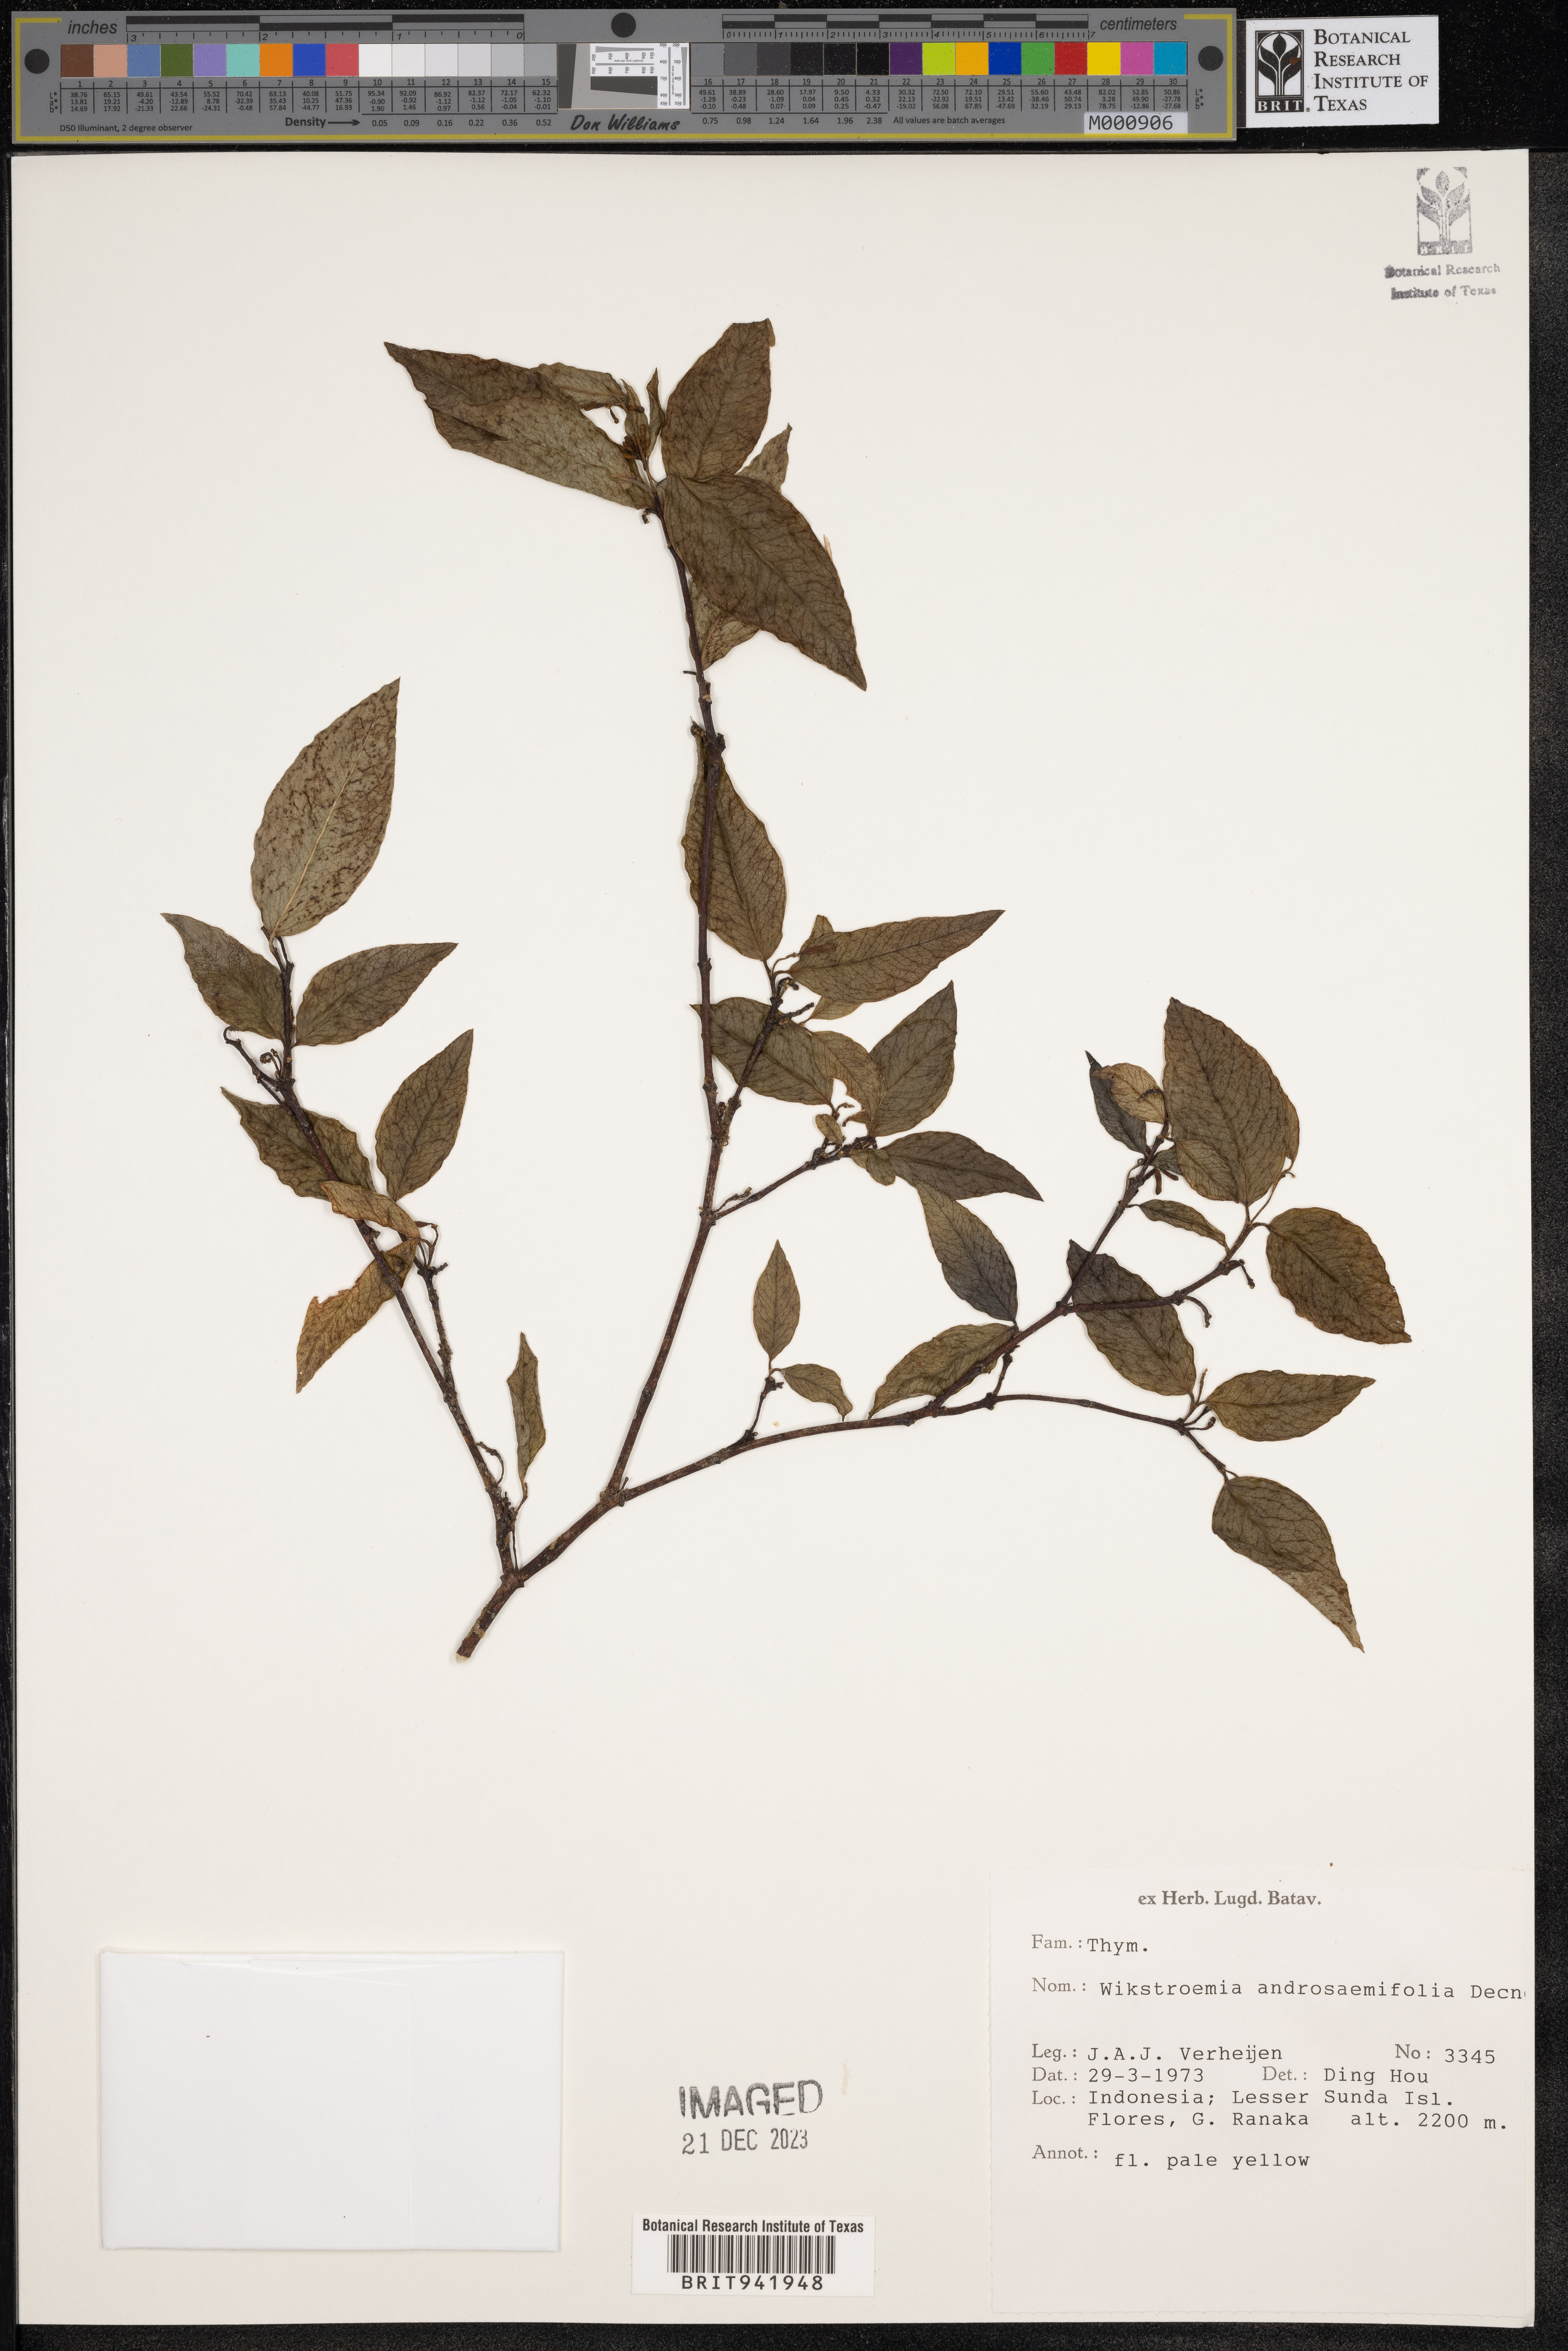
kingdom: Plantae
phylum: Tracheophyta
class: Magnoliopsida
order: Malvales
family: Thymelaeaceae
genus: Wikstroemia
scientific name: Wikstroemia
